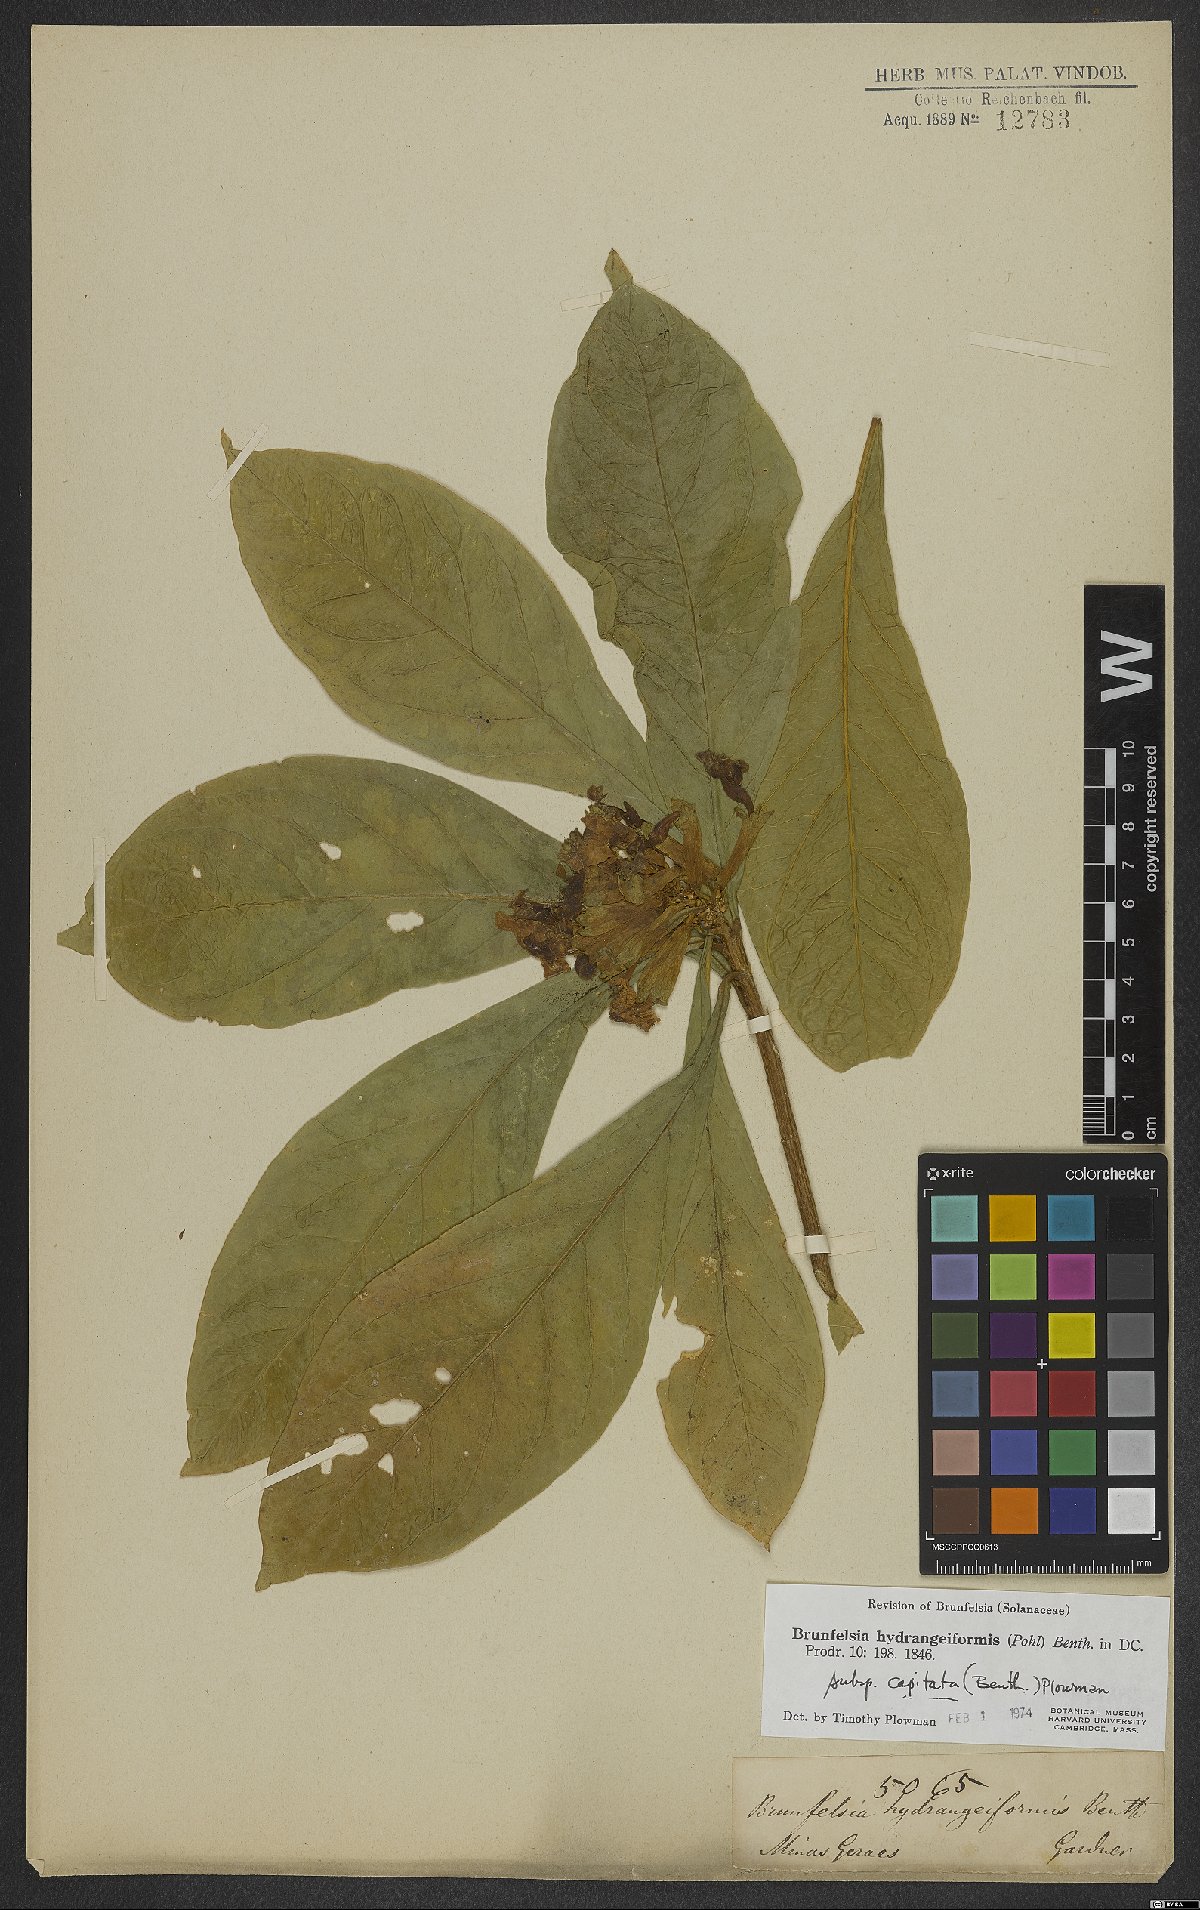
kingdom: Plantae
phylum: Tracheophyta
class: Magnoliopsida
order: Solanales
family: Solanaceae
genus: Brunfelsia
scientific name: Brunfelsia hydrangeiformis
